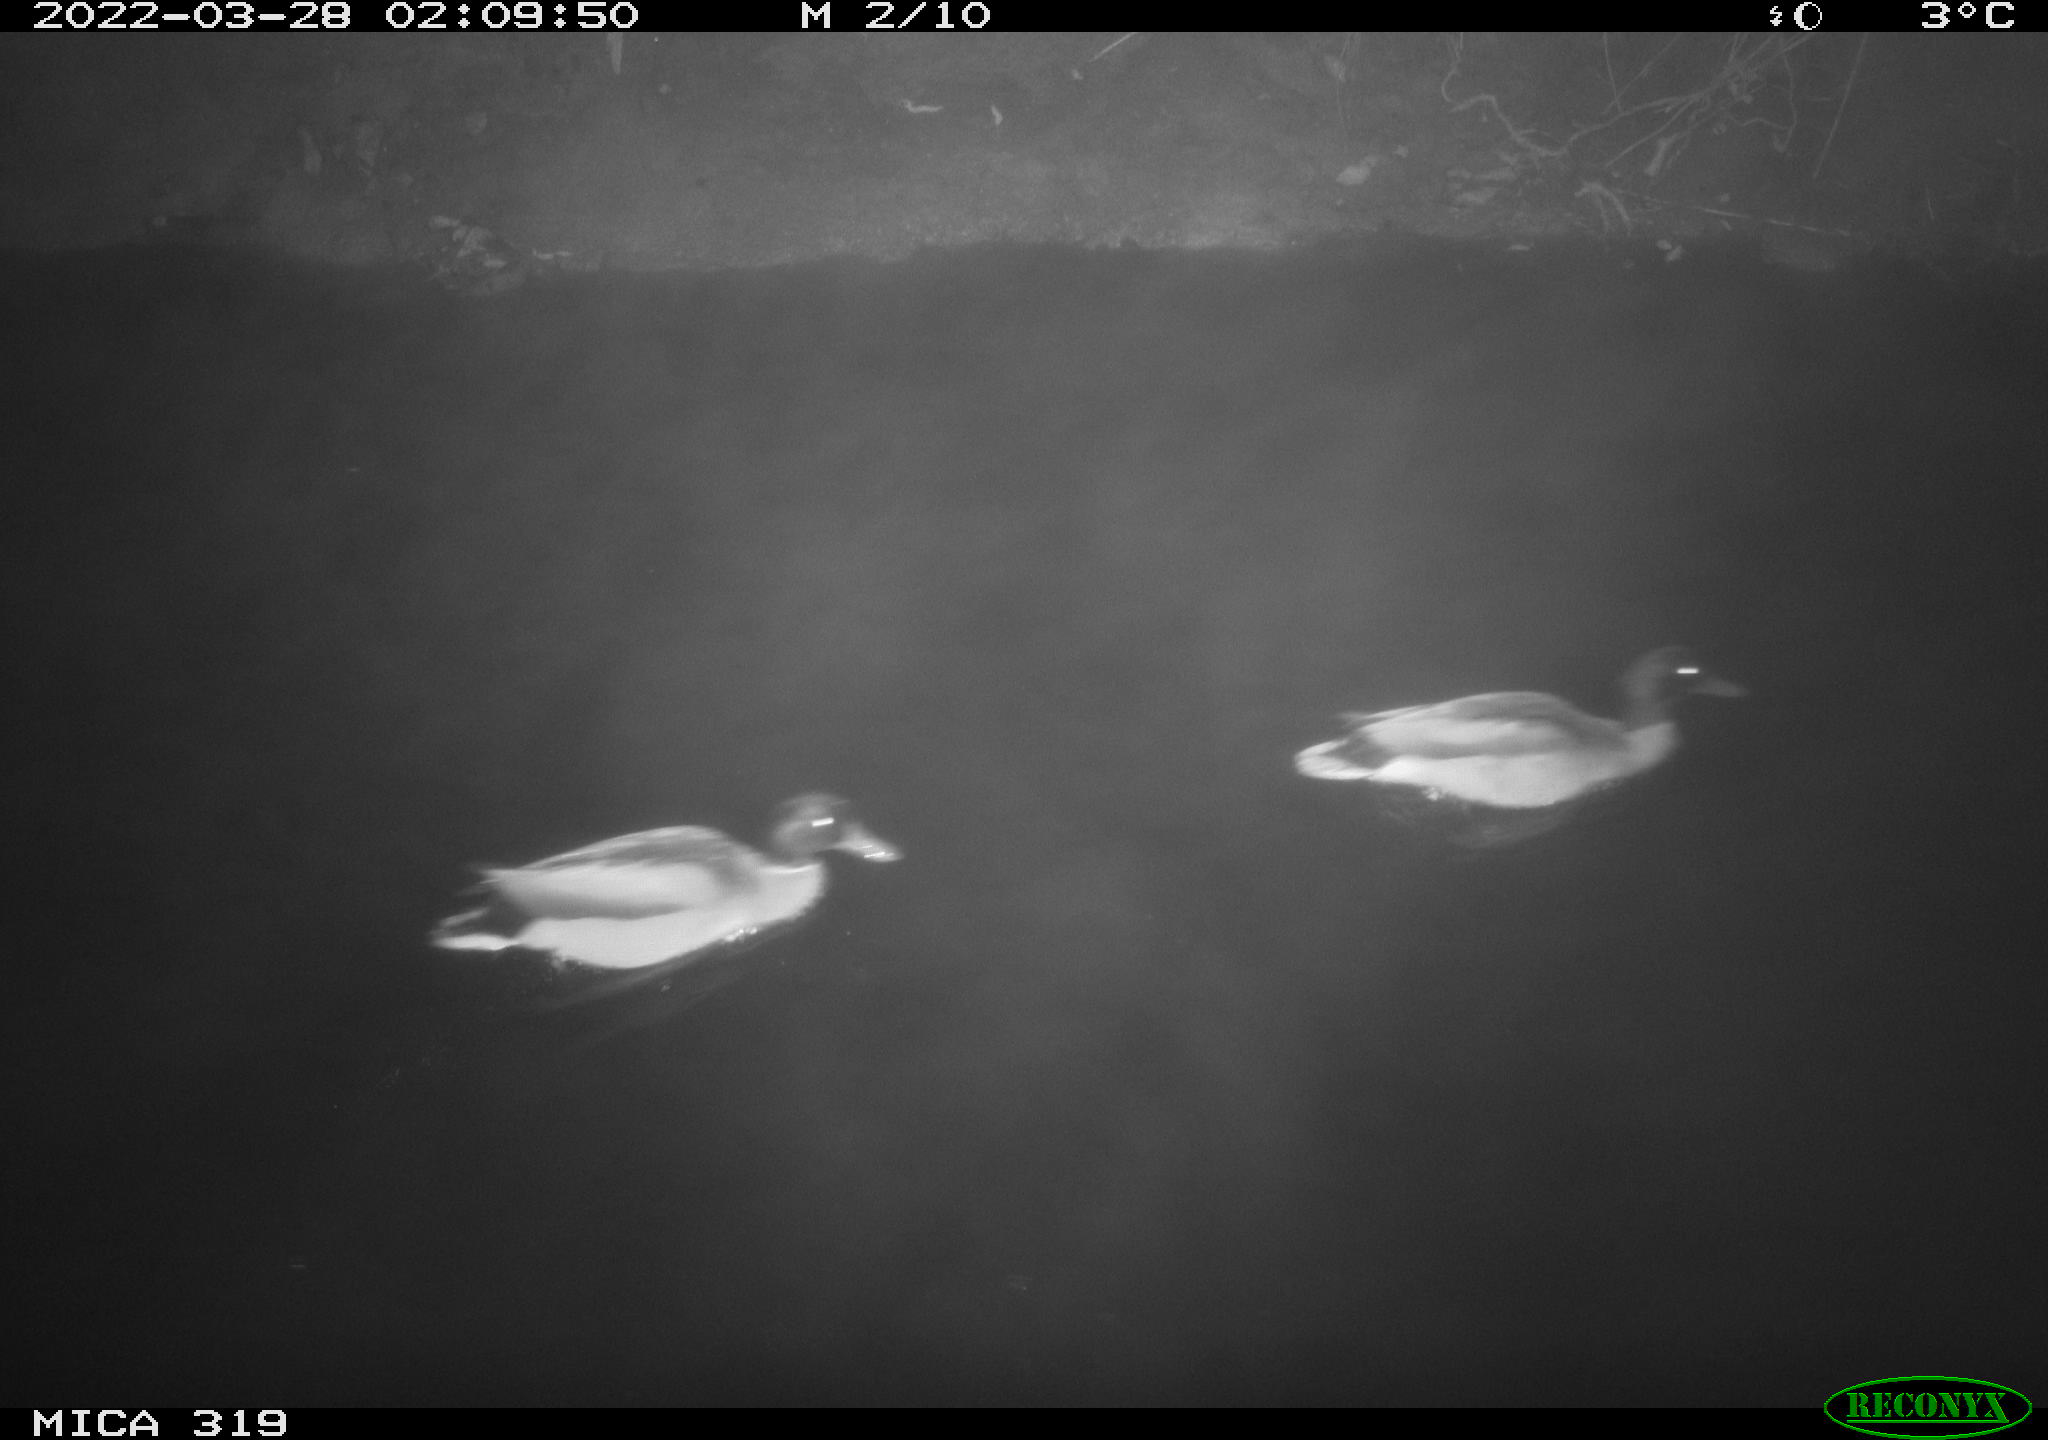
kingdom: Animalia
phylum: Chordata
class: Aves
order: Anseriformes
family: Anatidae
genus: Anas
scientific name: Anas platyrhynchos
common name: Mallard
